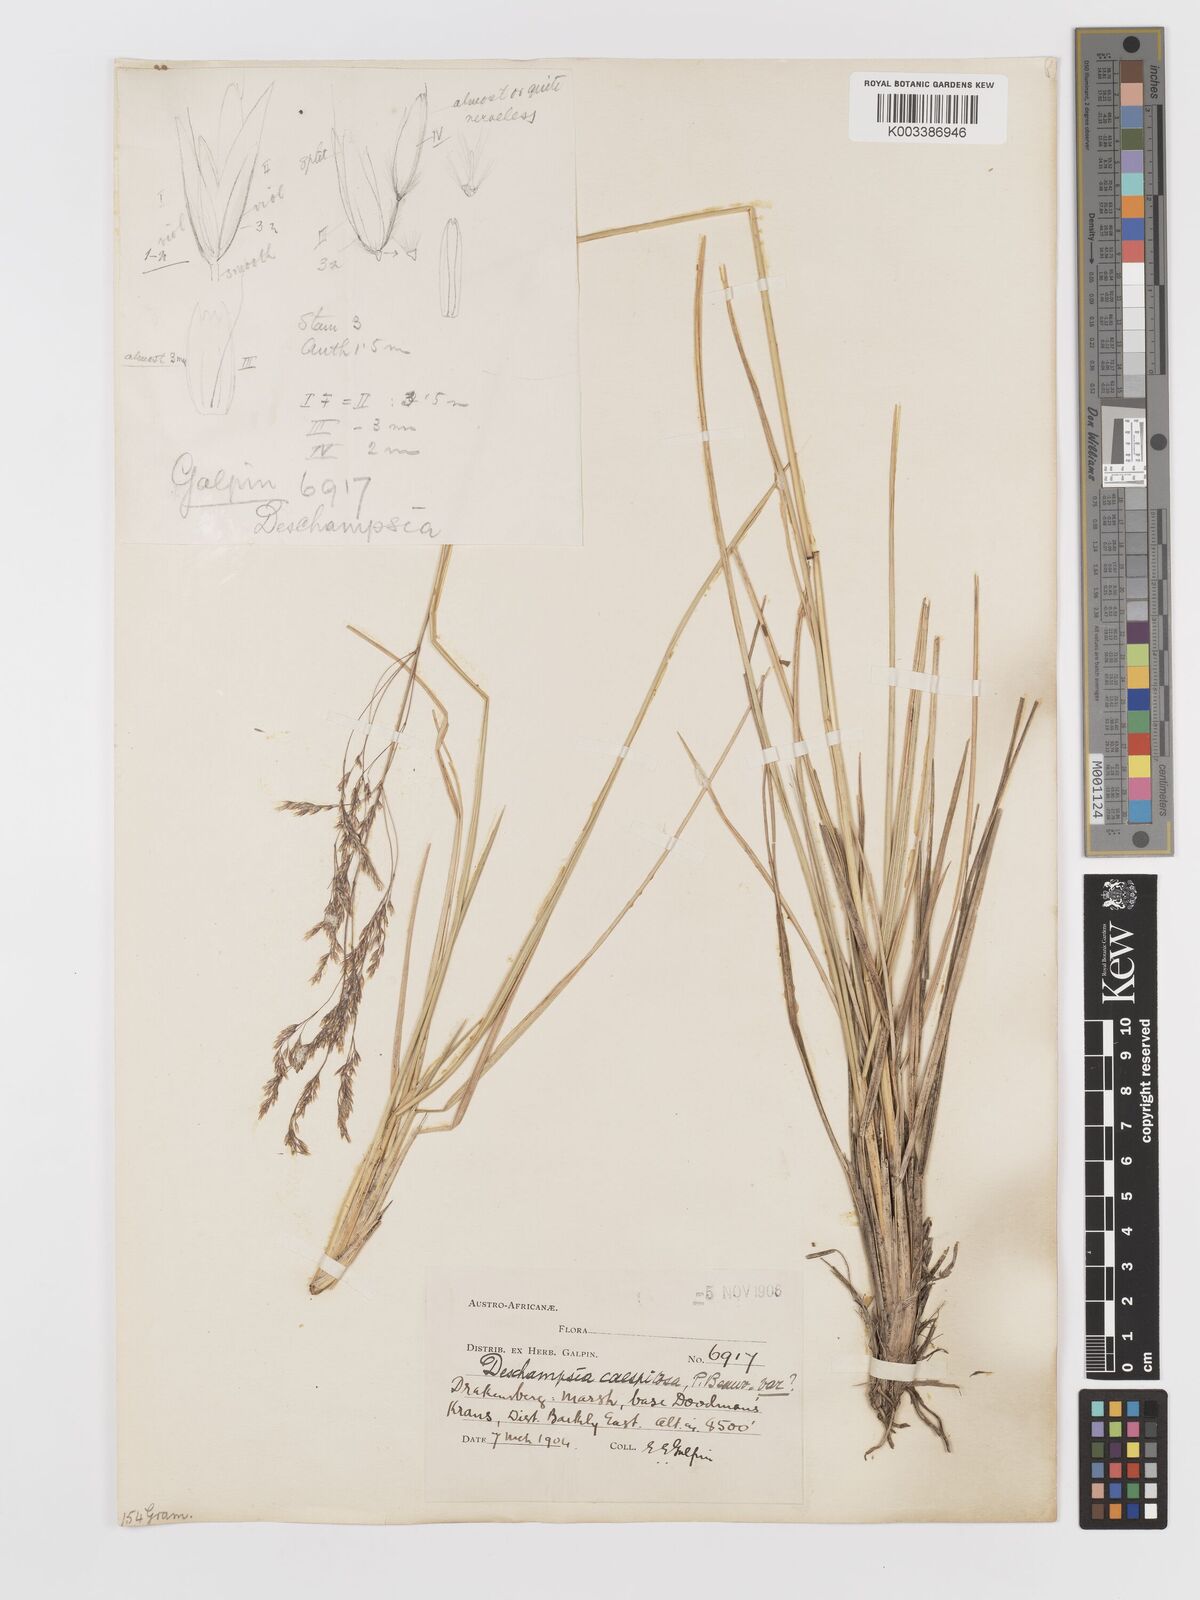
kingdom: Plantae
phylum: Tracheophyta
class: Liliopsida
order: Poales
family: Poaceae
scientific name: Poaceae
